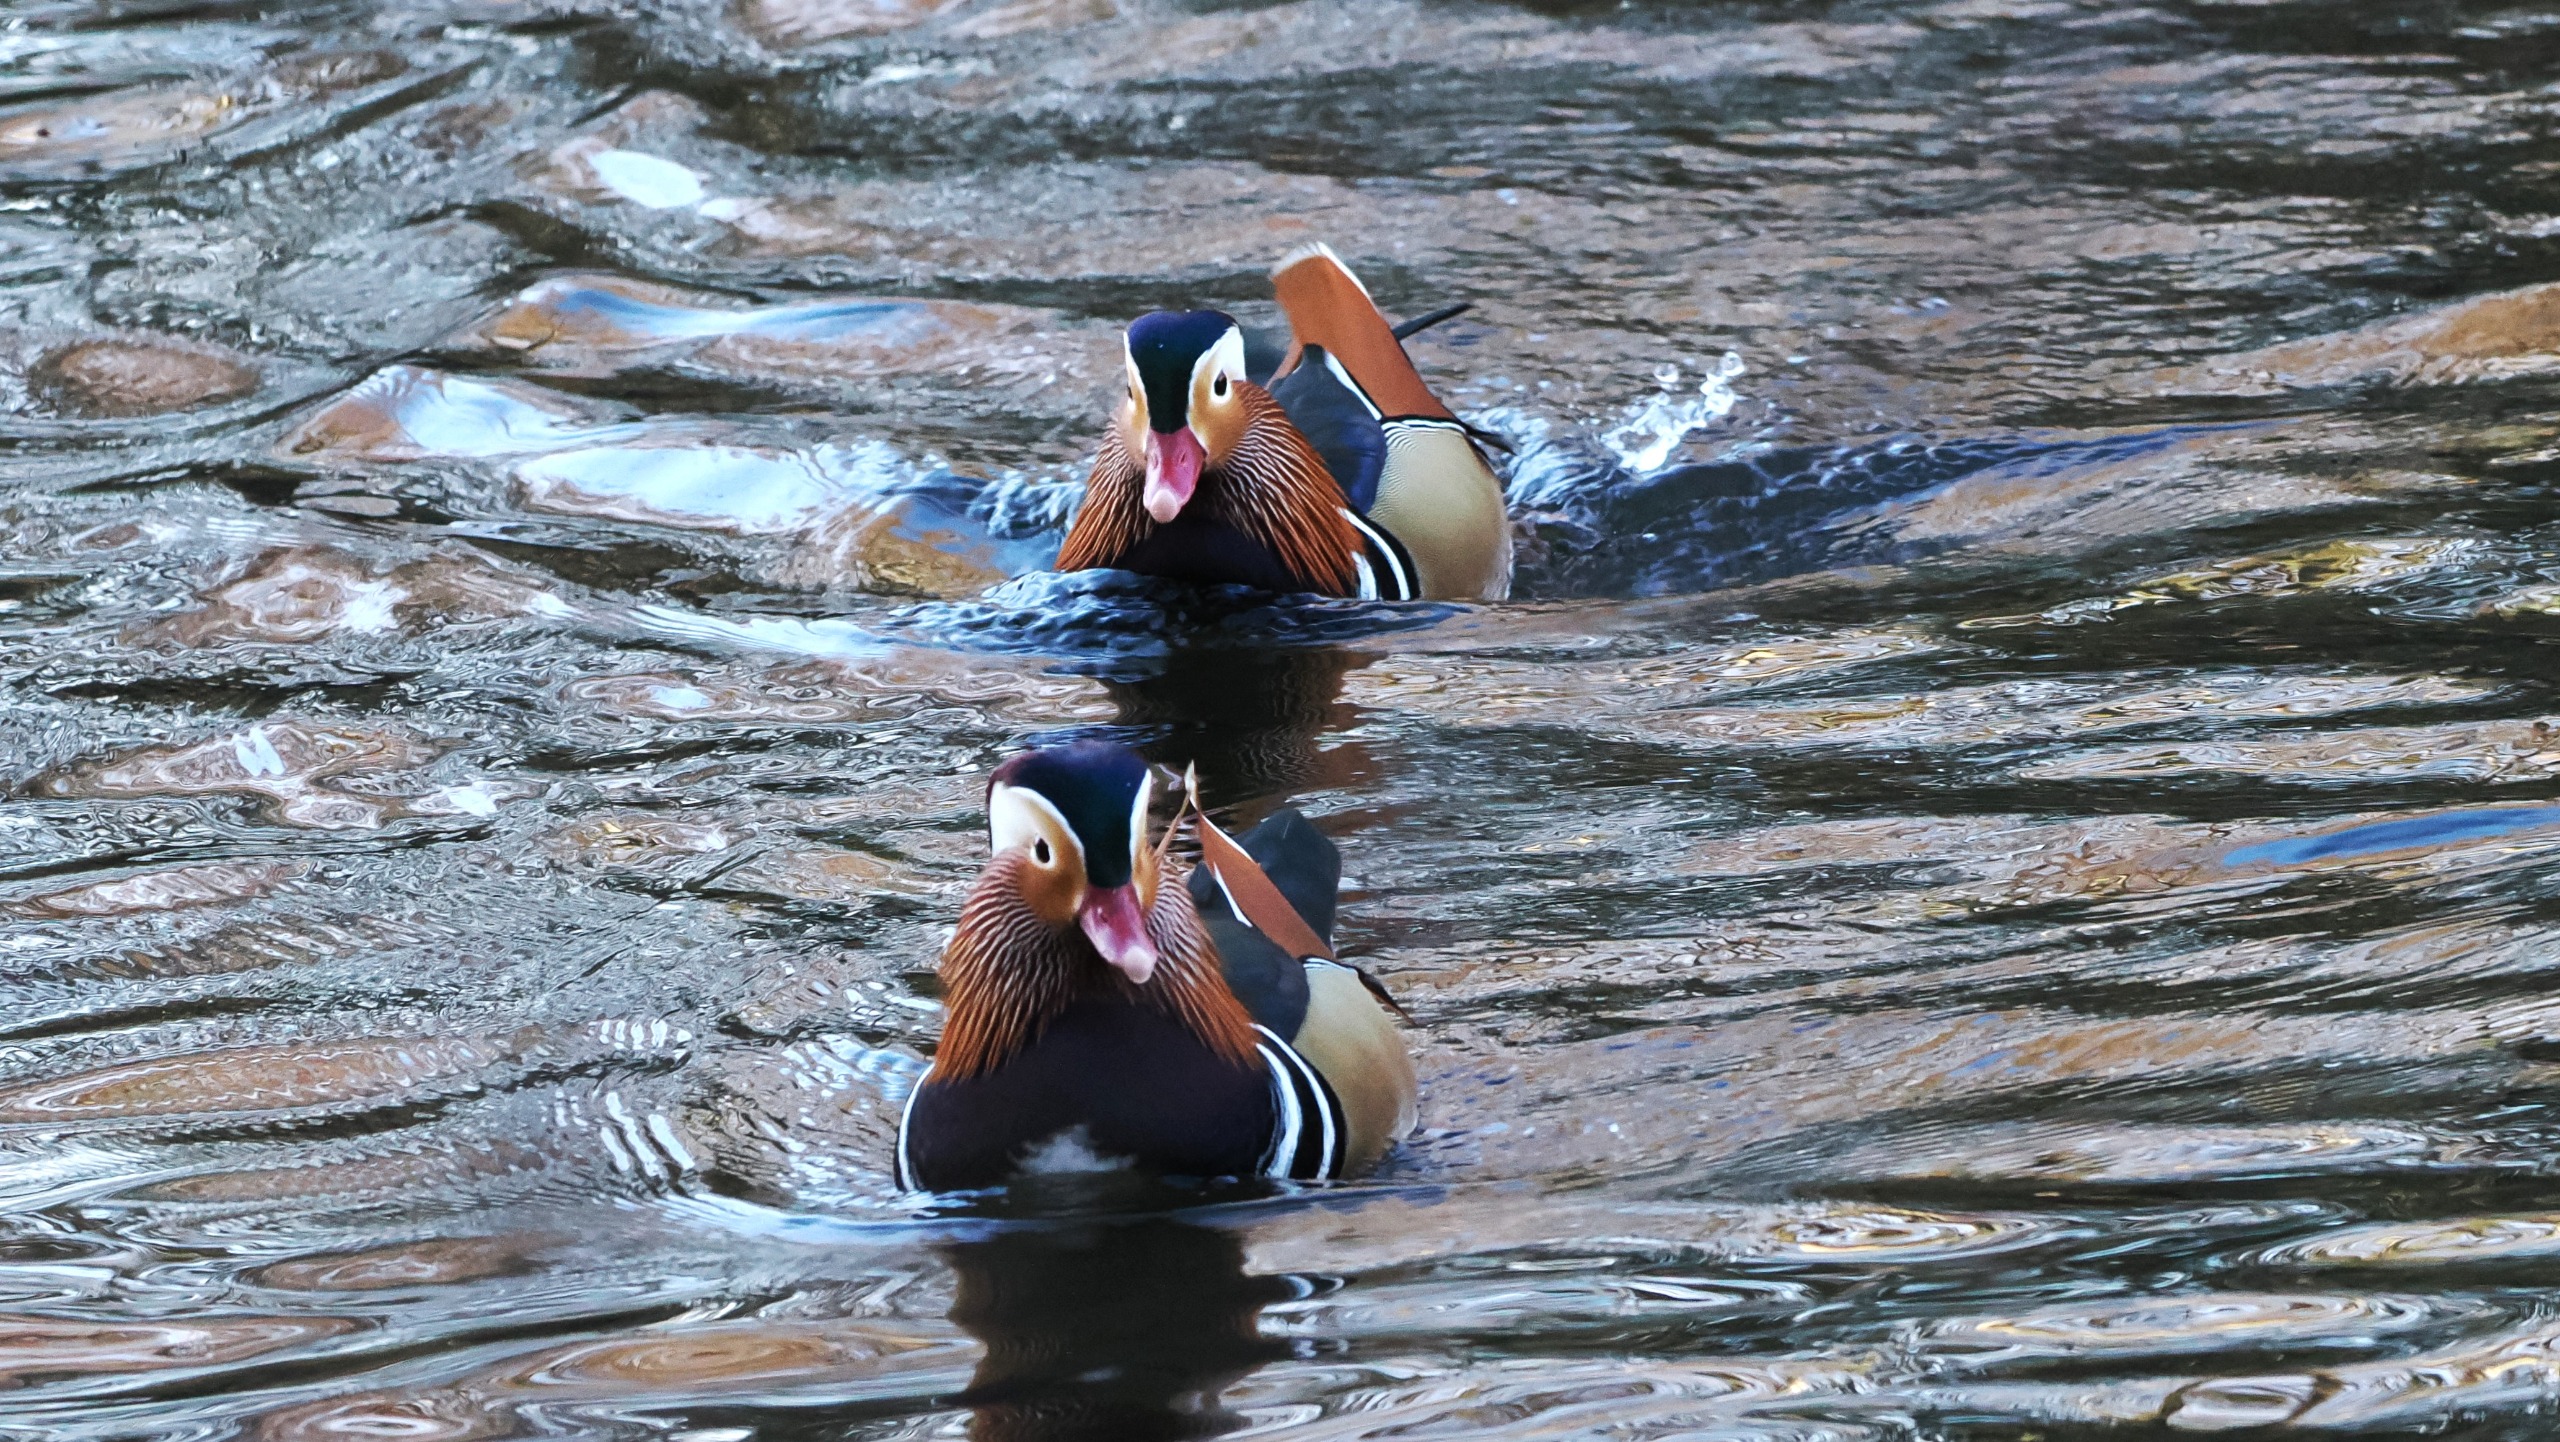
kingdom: Animalia
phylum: Chordata
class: Aves
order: Anseriformes
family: Anatidae
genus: Aix
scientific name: Aix galericulata
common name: Mandarinand
